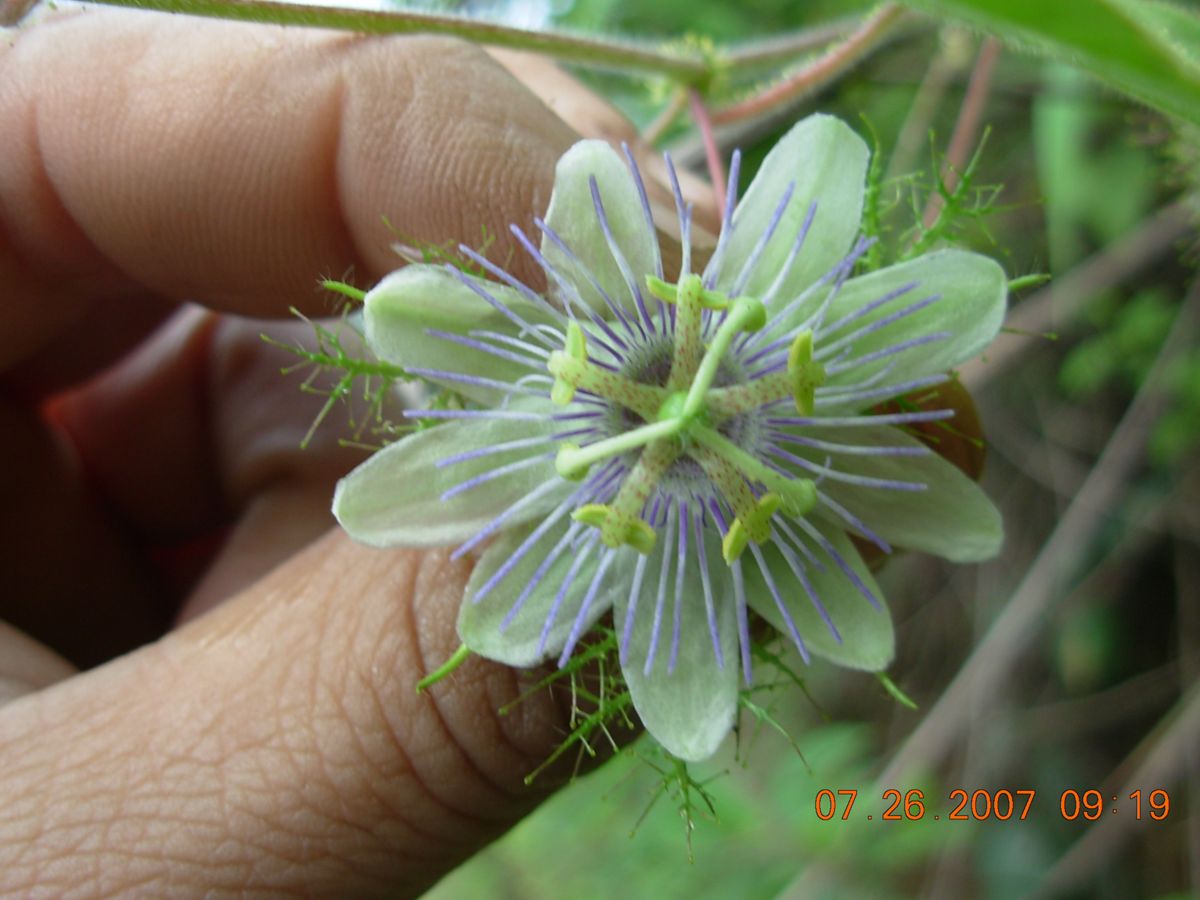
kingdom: Plantae
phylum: Tracheophyta
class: Magnoliopsida
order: Malpighiales
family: Passifloraceae
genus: Passiflora
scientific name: Passiflora foetida
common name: Fetid passionflower
